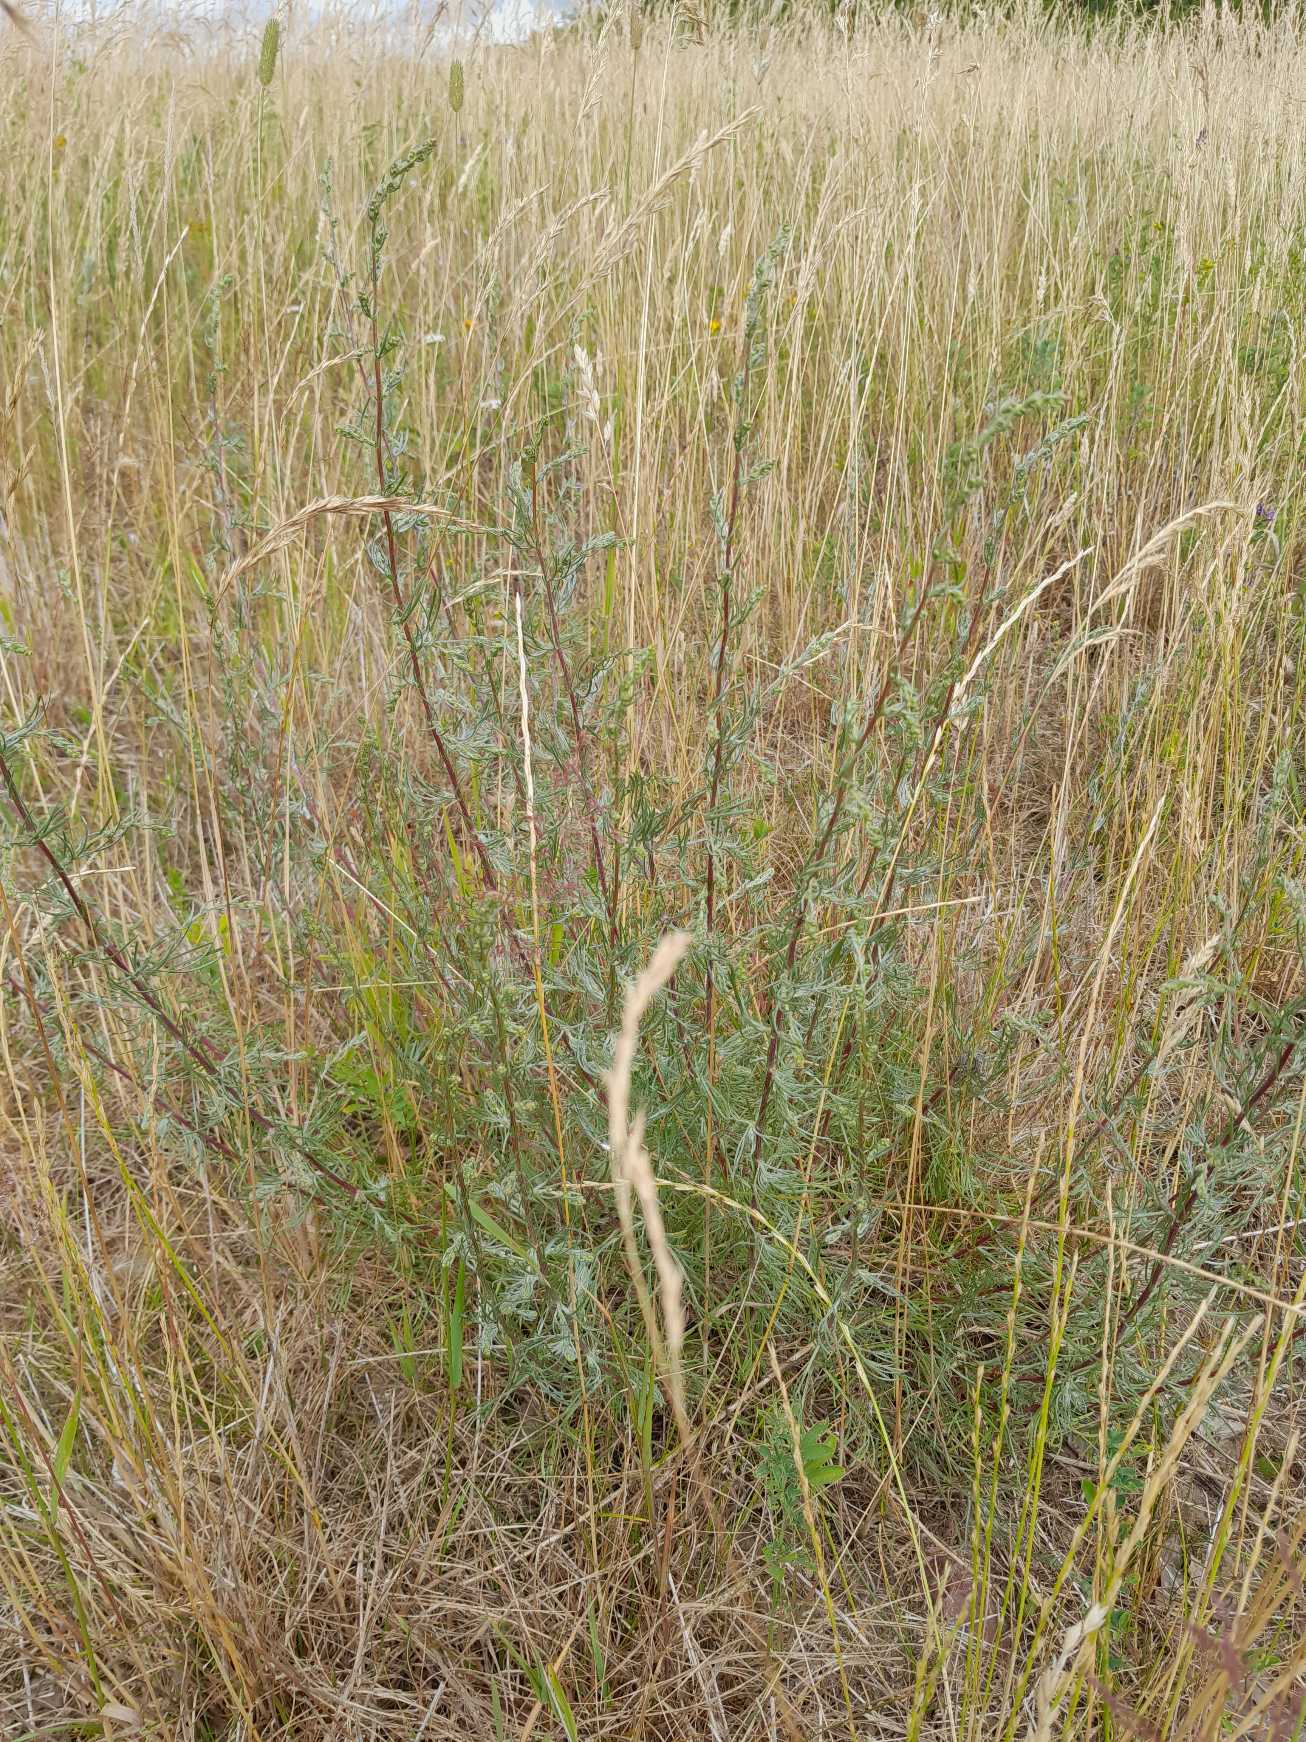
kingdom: Plantae
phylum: Tracheophyta
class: Magnoliopsida
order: Asterales
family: Asteraceae
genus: Artemisia
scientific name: Artemisia campestris
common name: Mark-bynke
